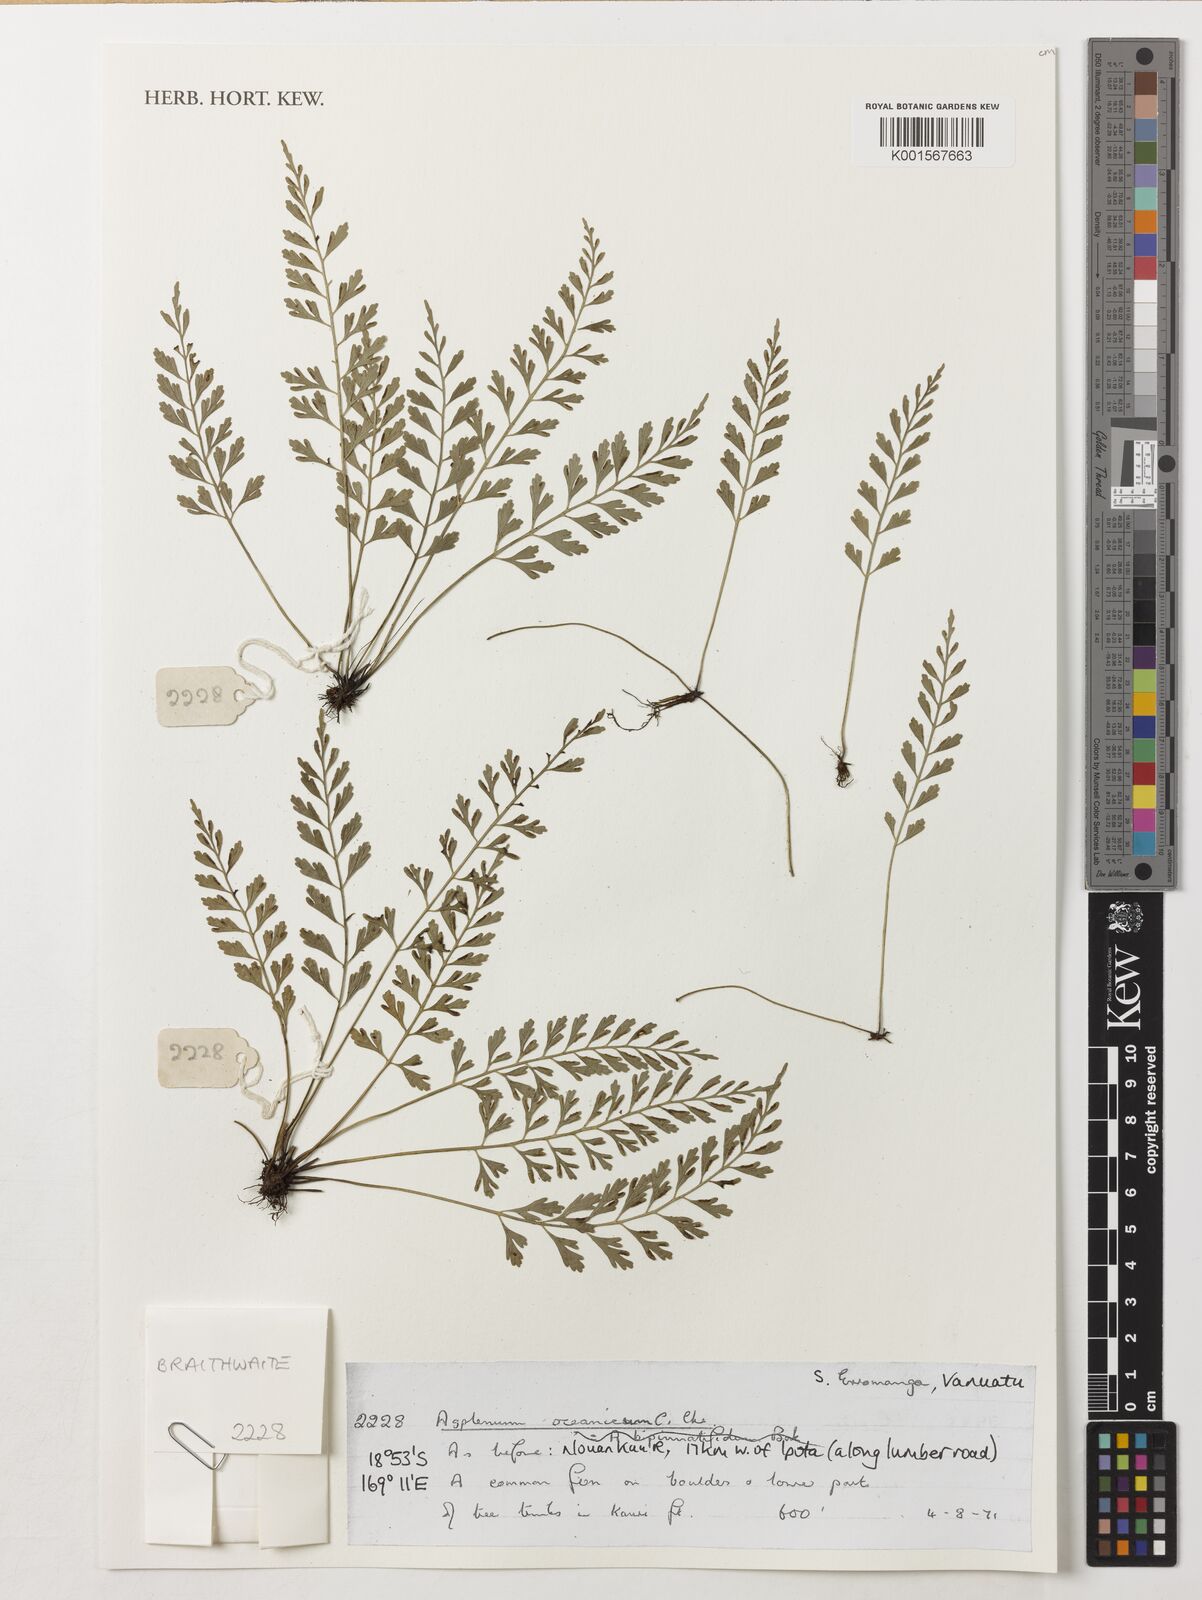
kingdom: Plantae
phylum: Tracheophyta
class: Polypodiopsida
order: Polypodiales
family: Aspleniaceae
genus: Asplenium
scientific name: Asplenium bipinnatifidum
